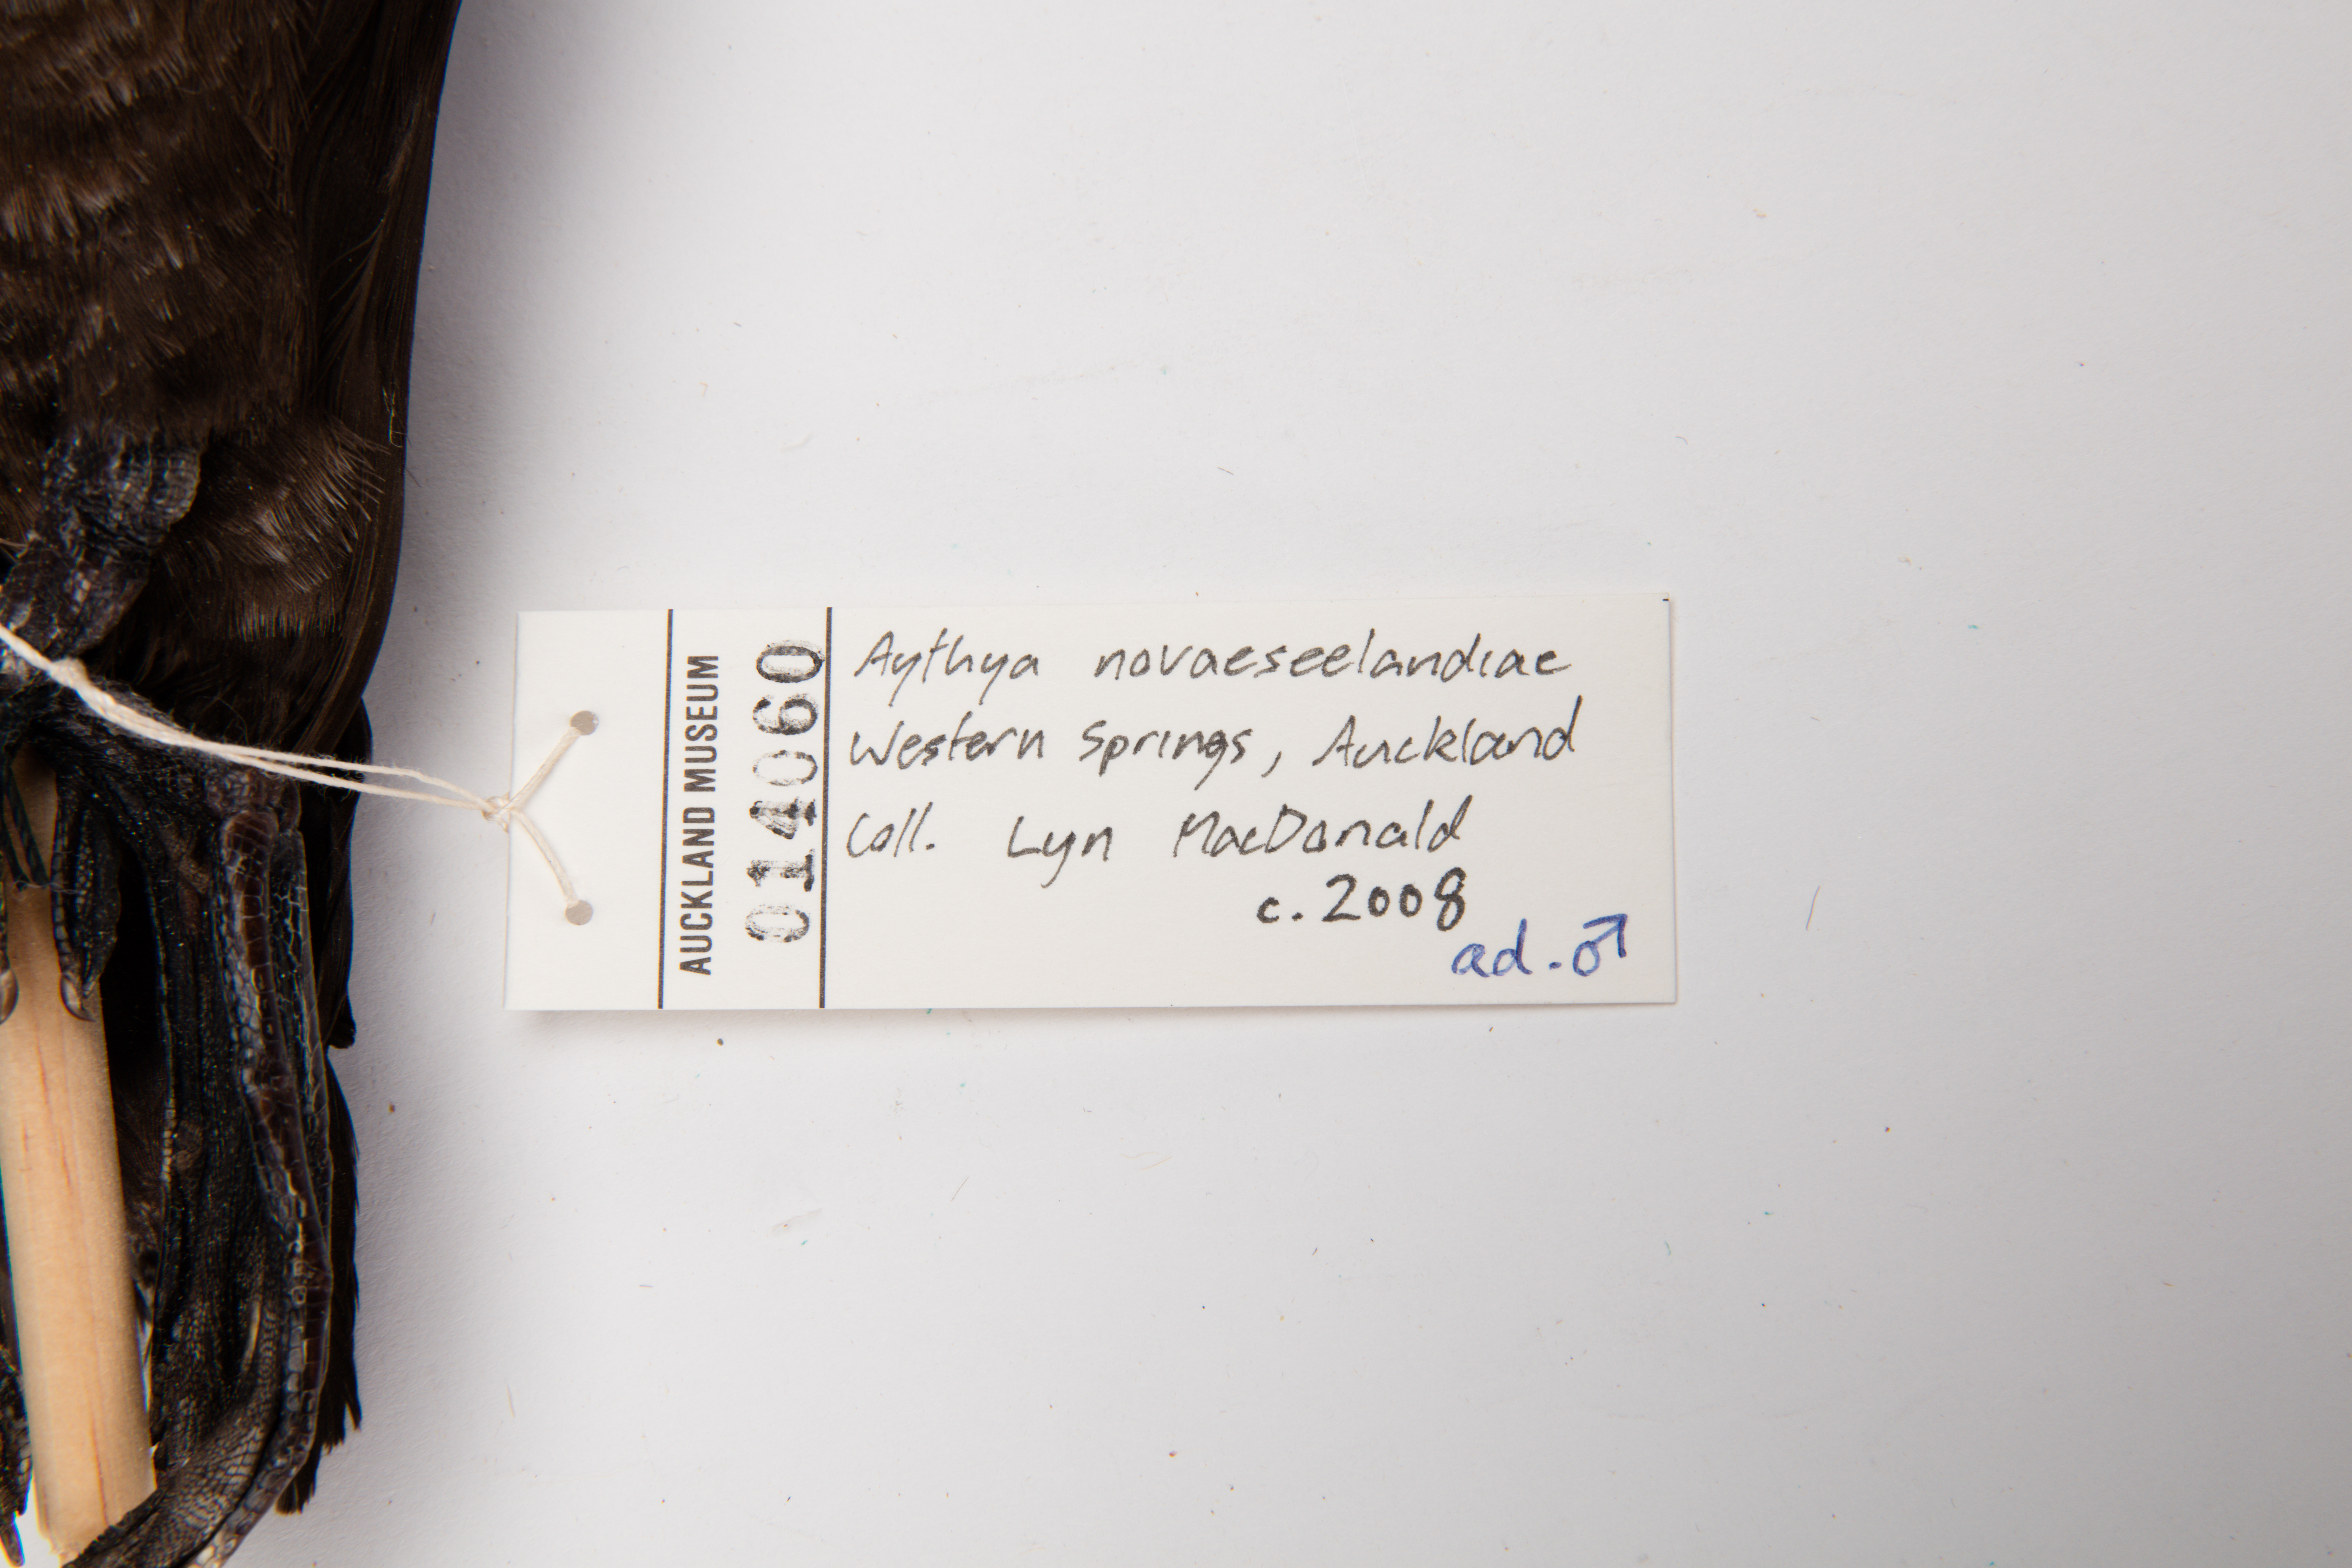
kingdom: Animalia
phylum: Chordata
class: Aves
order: Anseriformes
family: Anatidae
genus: Aythya
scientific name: Aythya novaeseelandiae
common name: New zealand scaup
